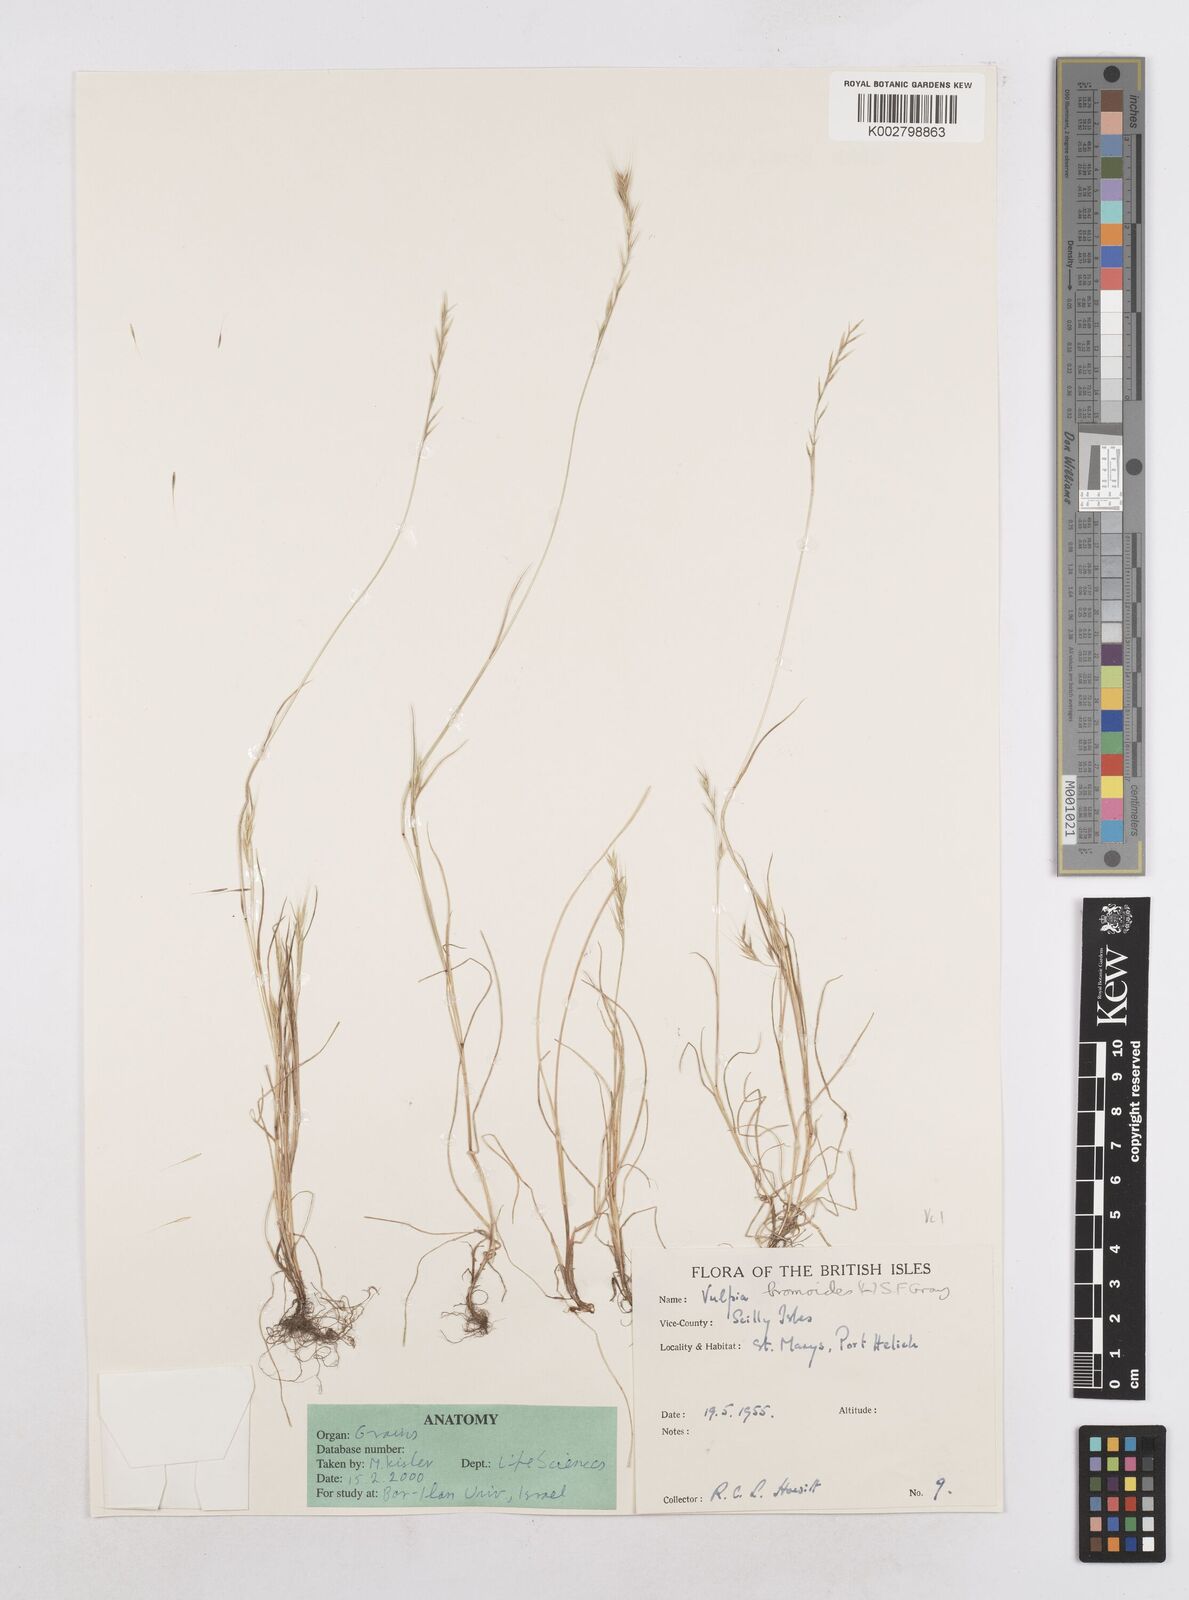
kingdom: Plantae
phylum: Tracheophyta
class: Liliopsida
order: Poales
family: Poaceae
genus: Festuca
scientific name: Festuca bromoides
